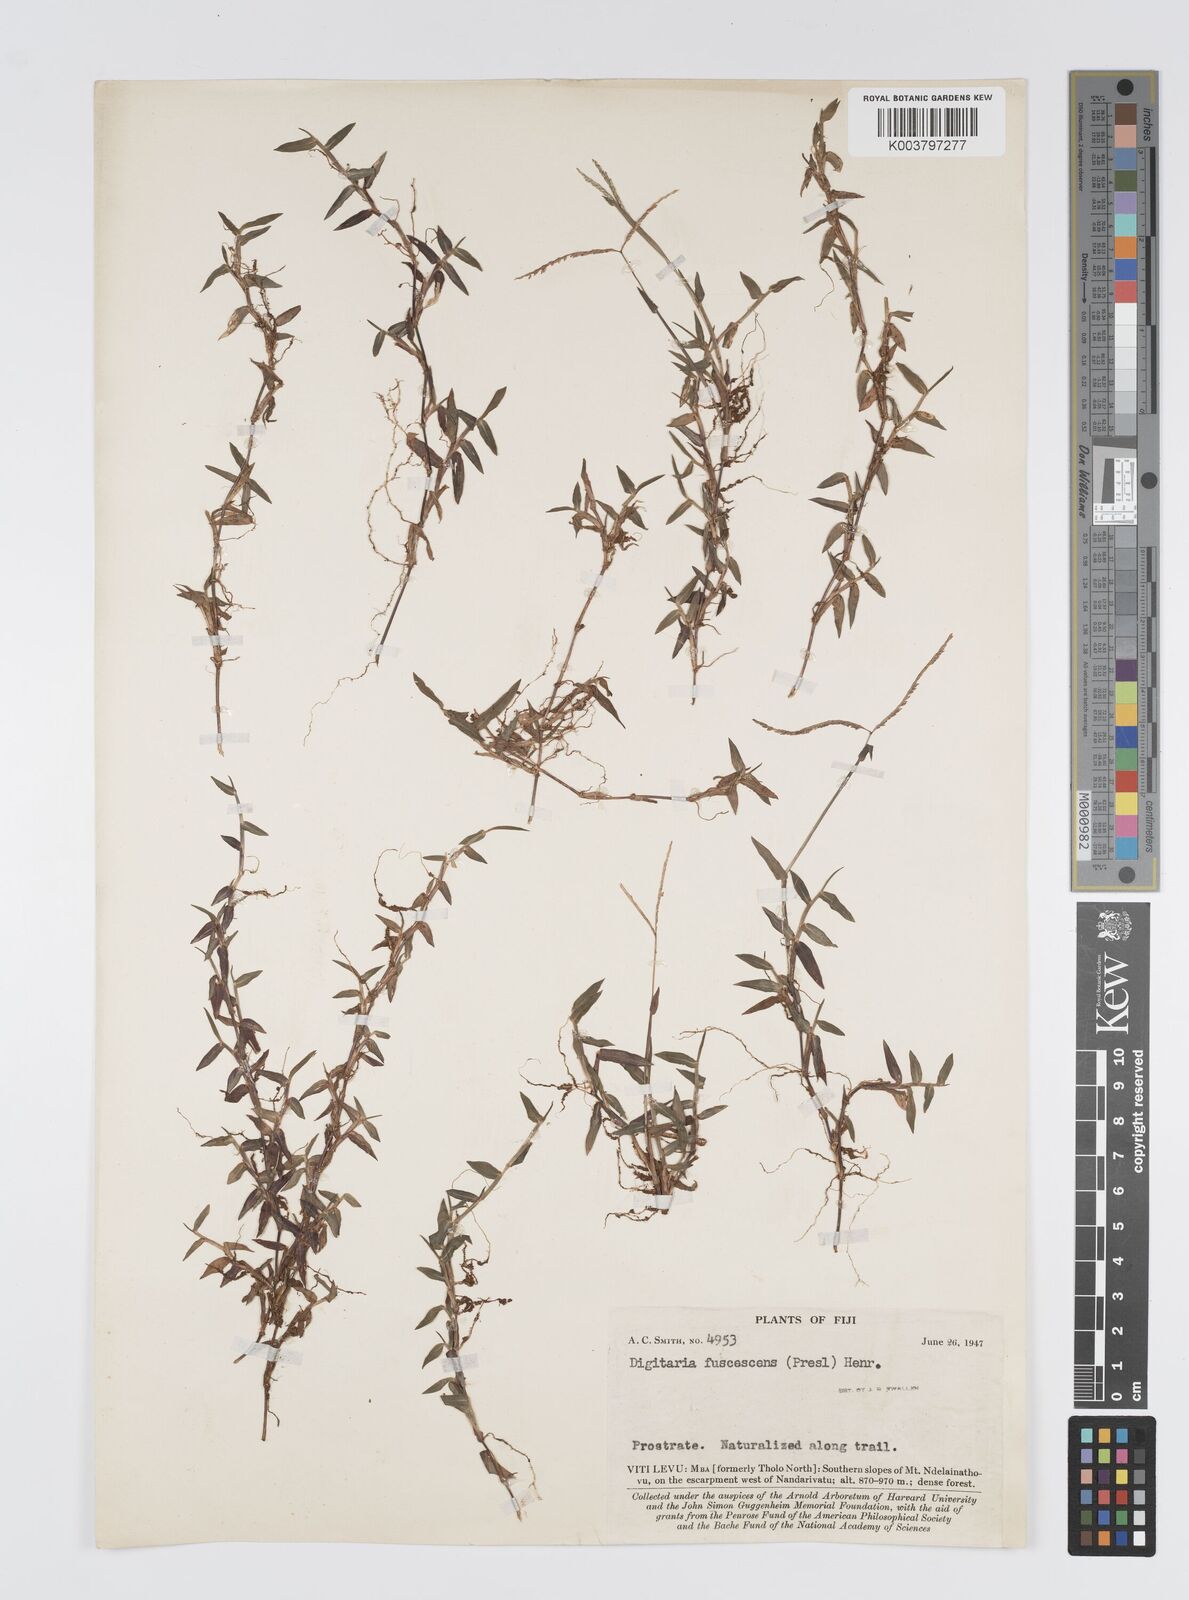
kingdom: Plantae
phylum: Tracheophyta
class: Liliopsida
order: Poales
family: Poaceae
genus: Digitaria
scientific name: Digitaria fuscescens
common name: Yellow crabgrass
